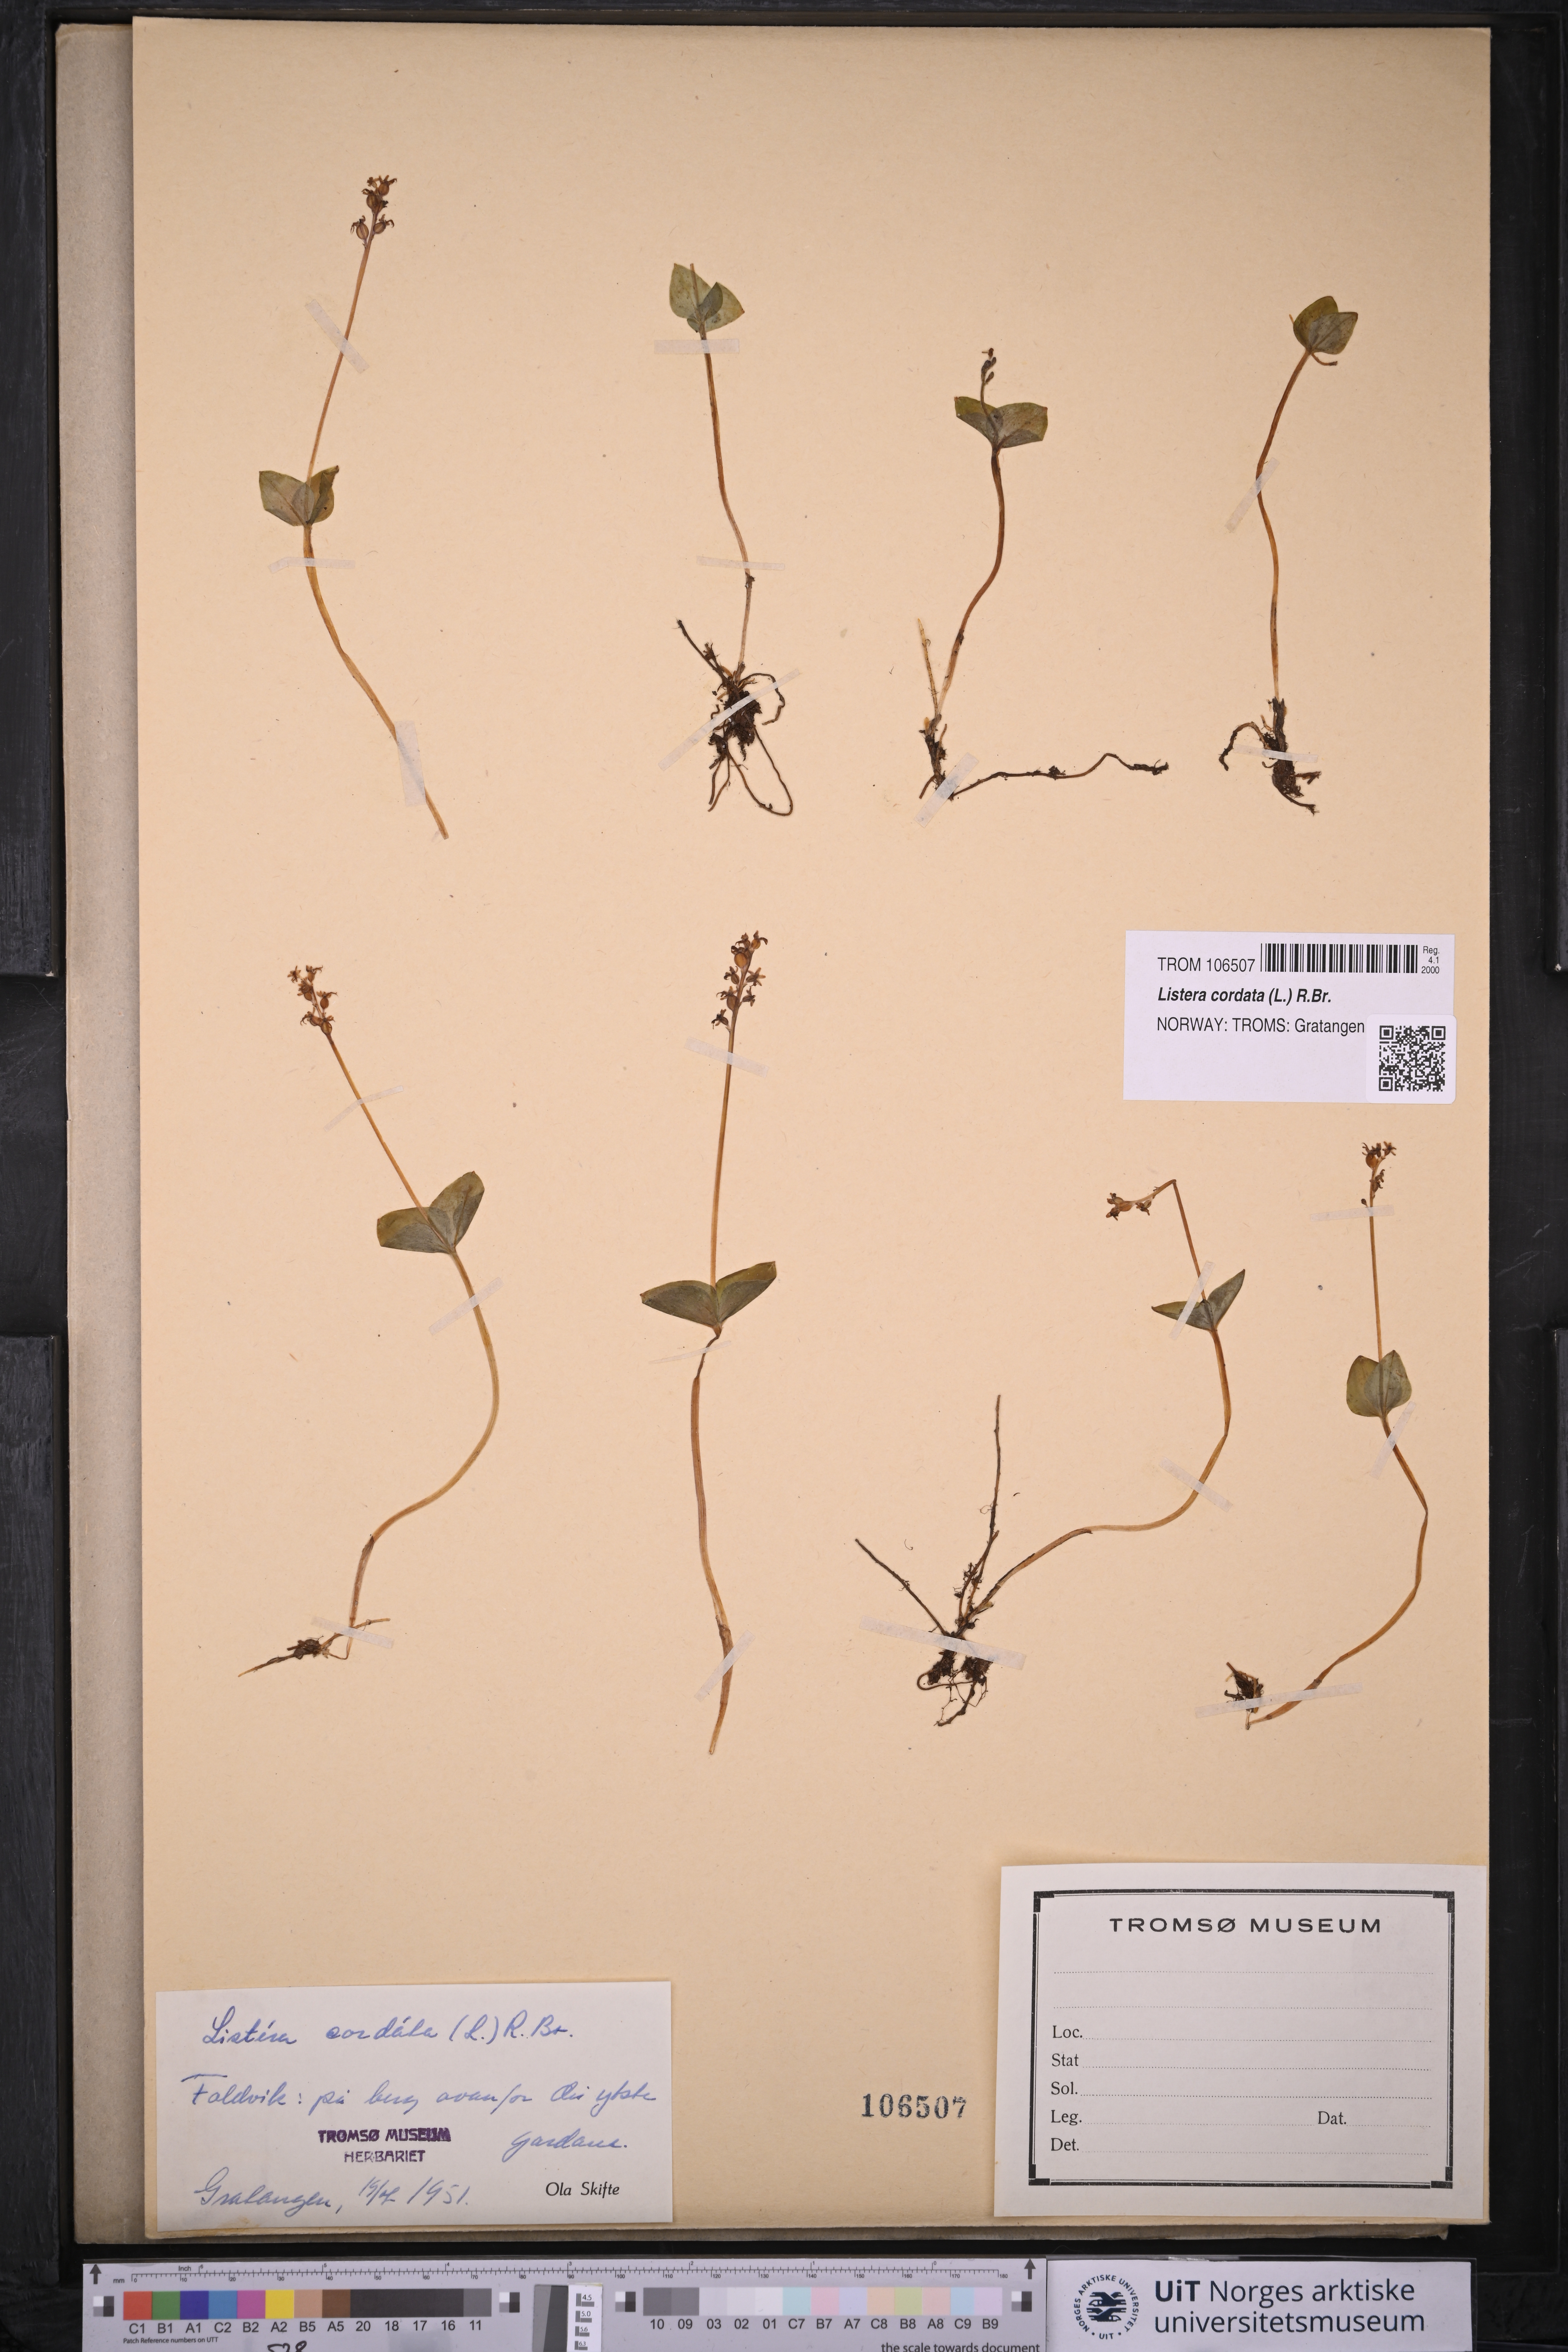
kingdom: Plantae
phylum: Tracheophyta
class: Liliopsida
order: Asparagales
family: Orchidaceae
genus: Neottia
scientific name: Neottia cordata
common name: Lesser twayblade
